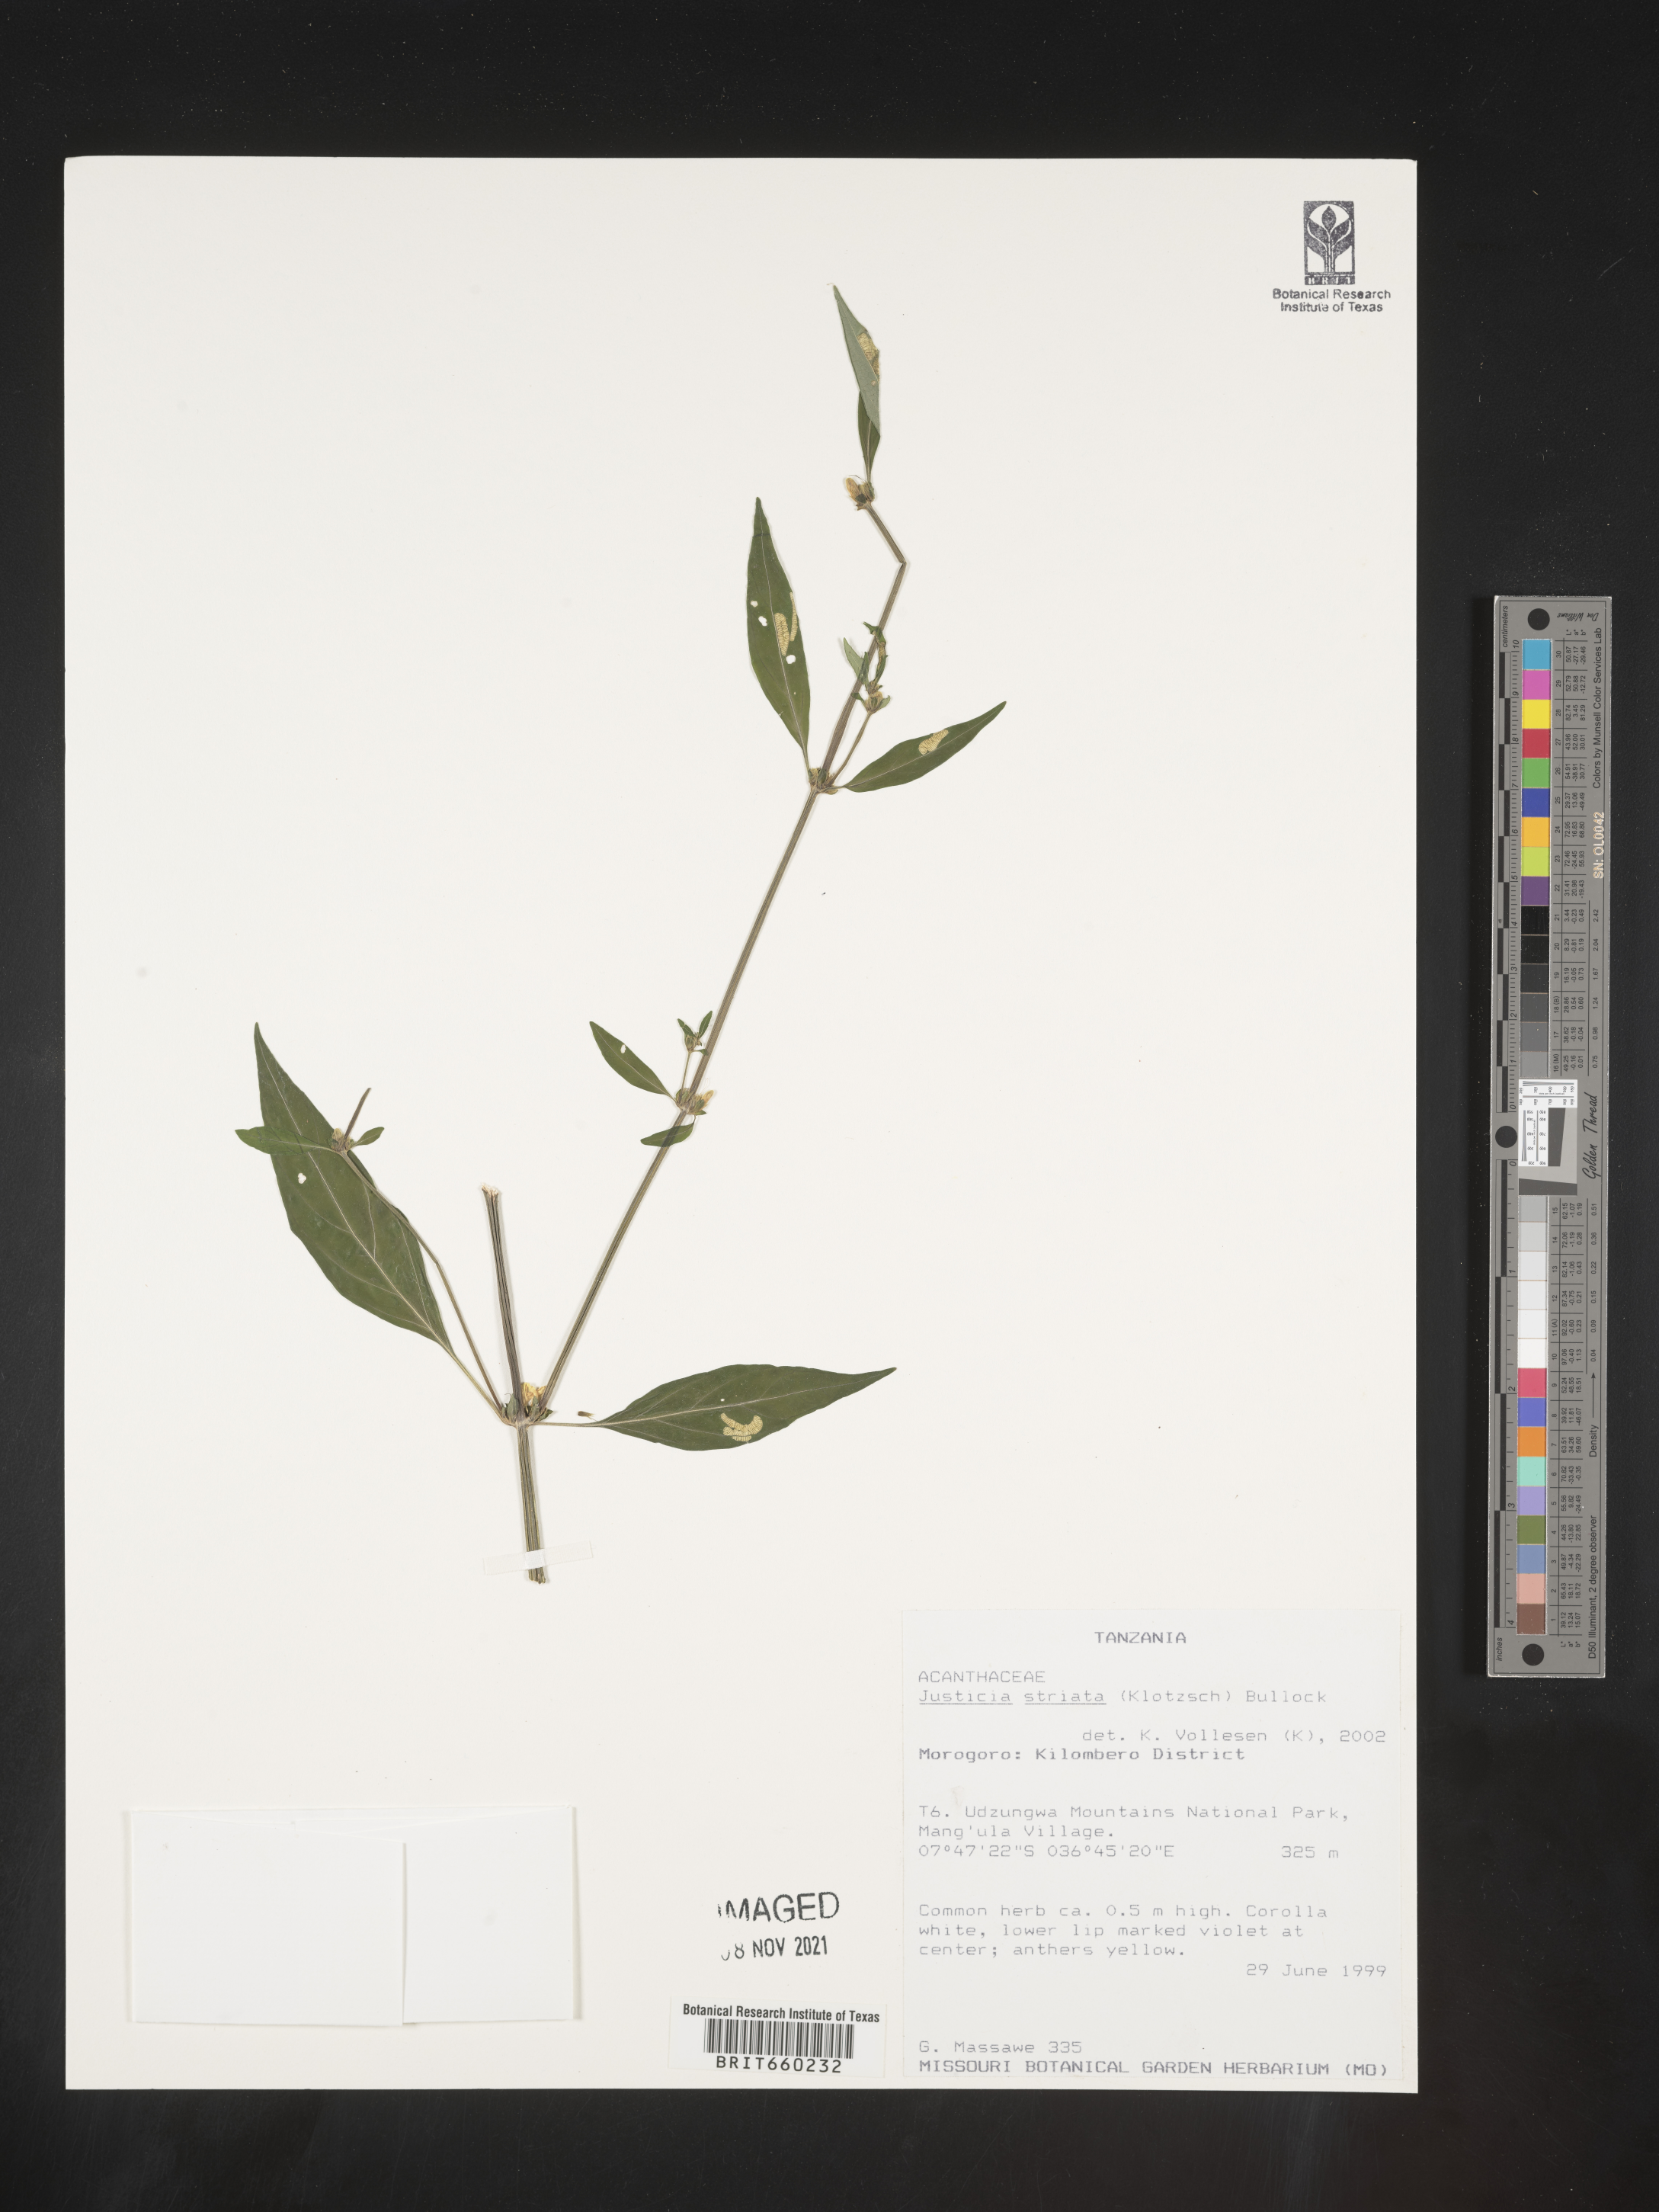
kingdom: Plantae
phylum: Tracheophyta
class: Magnoliopsida
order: Lamiales
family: Acanthaceae
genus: Justicia
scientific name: Justicia
